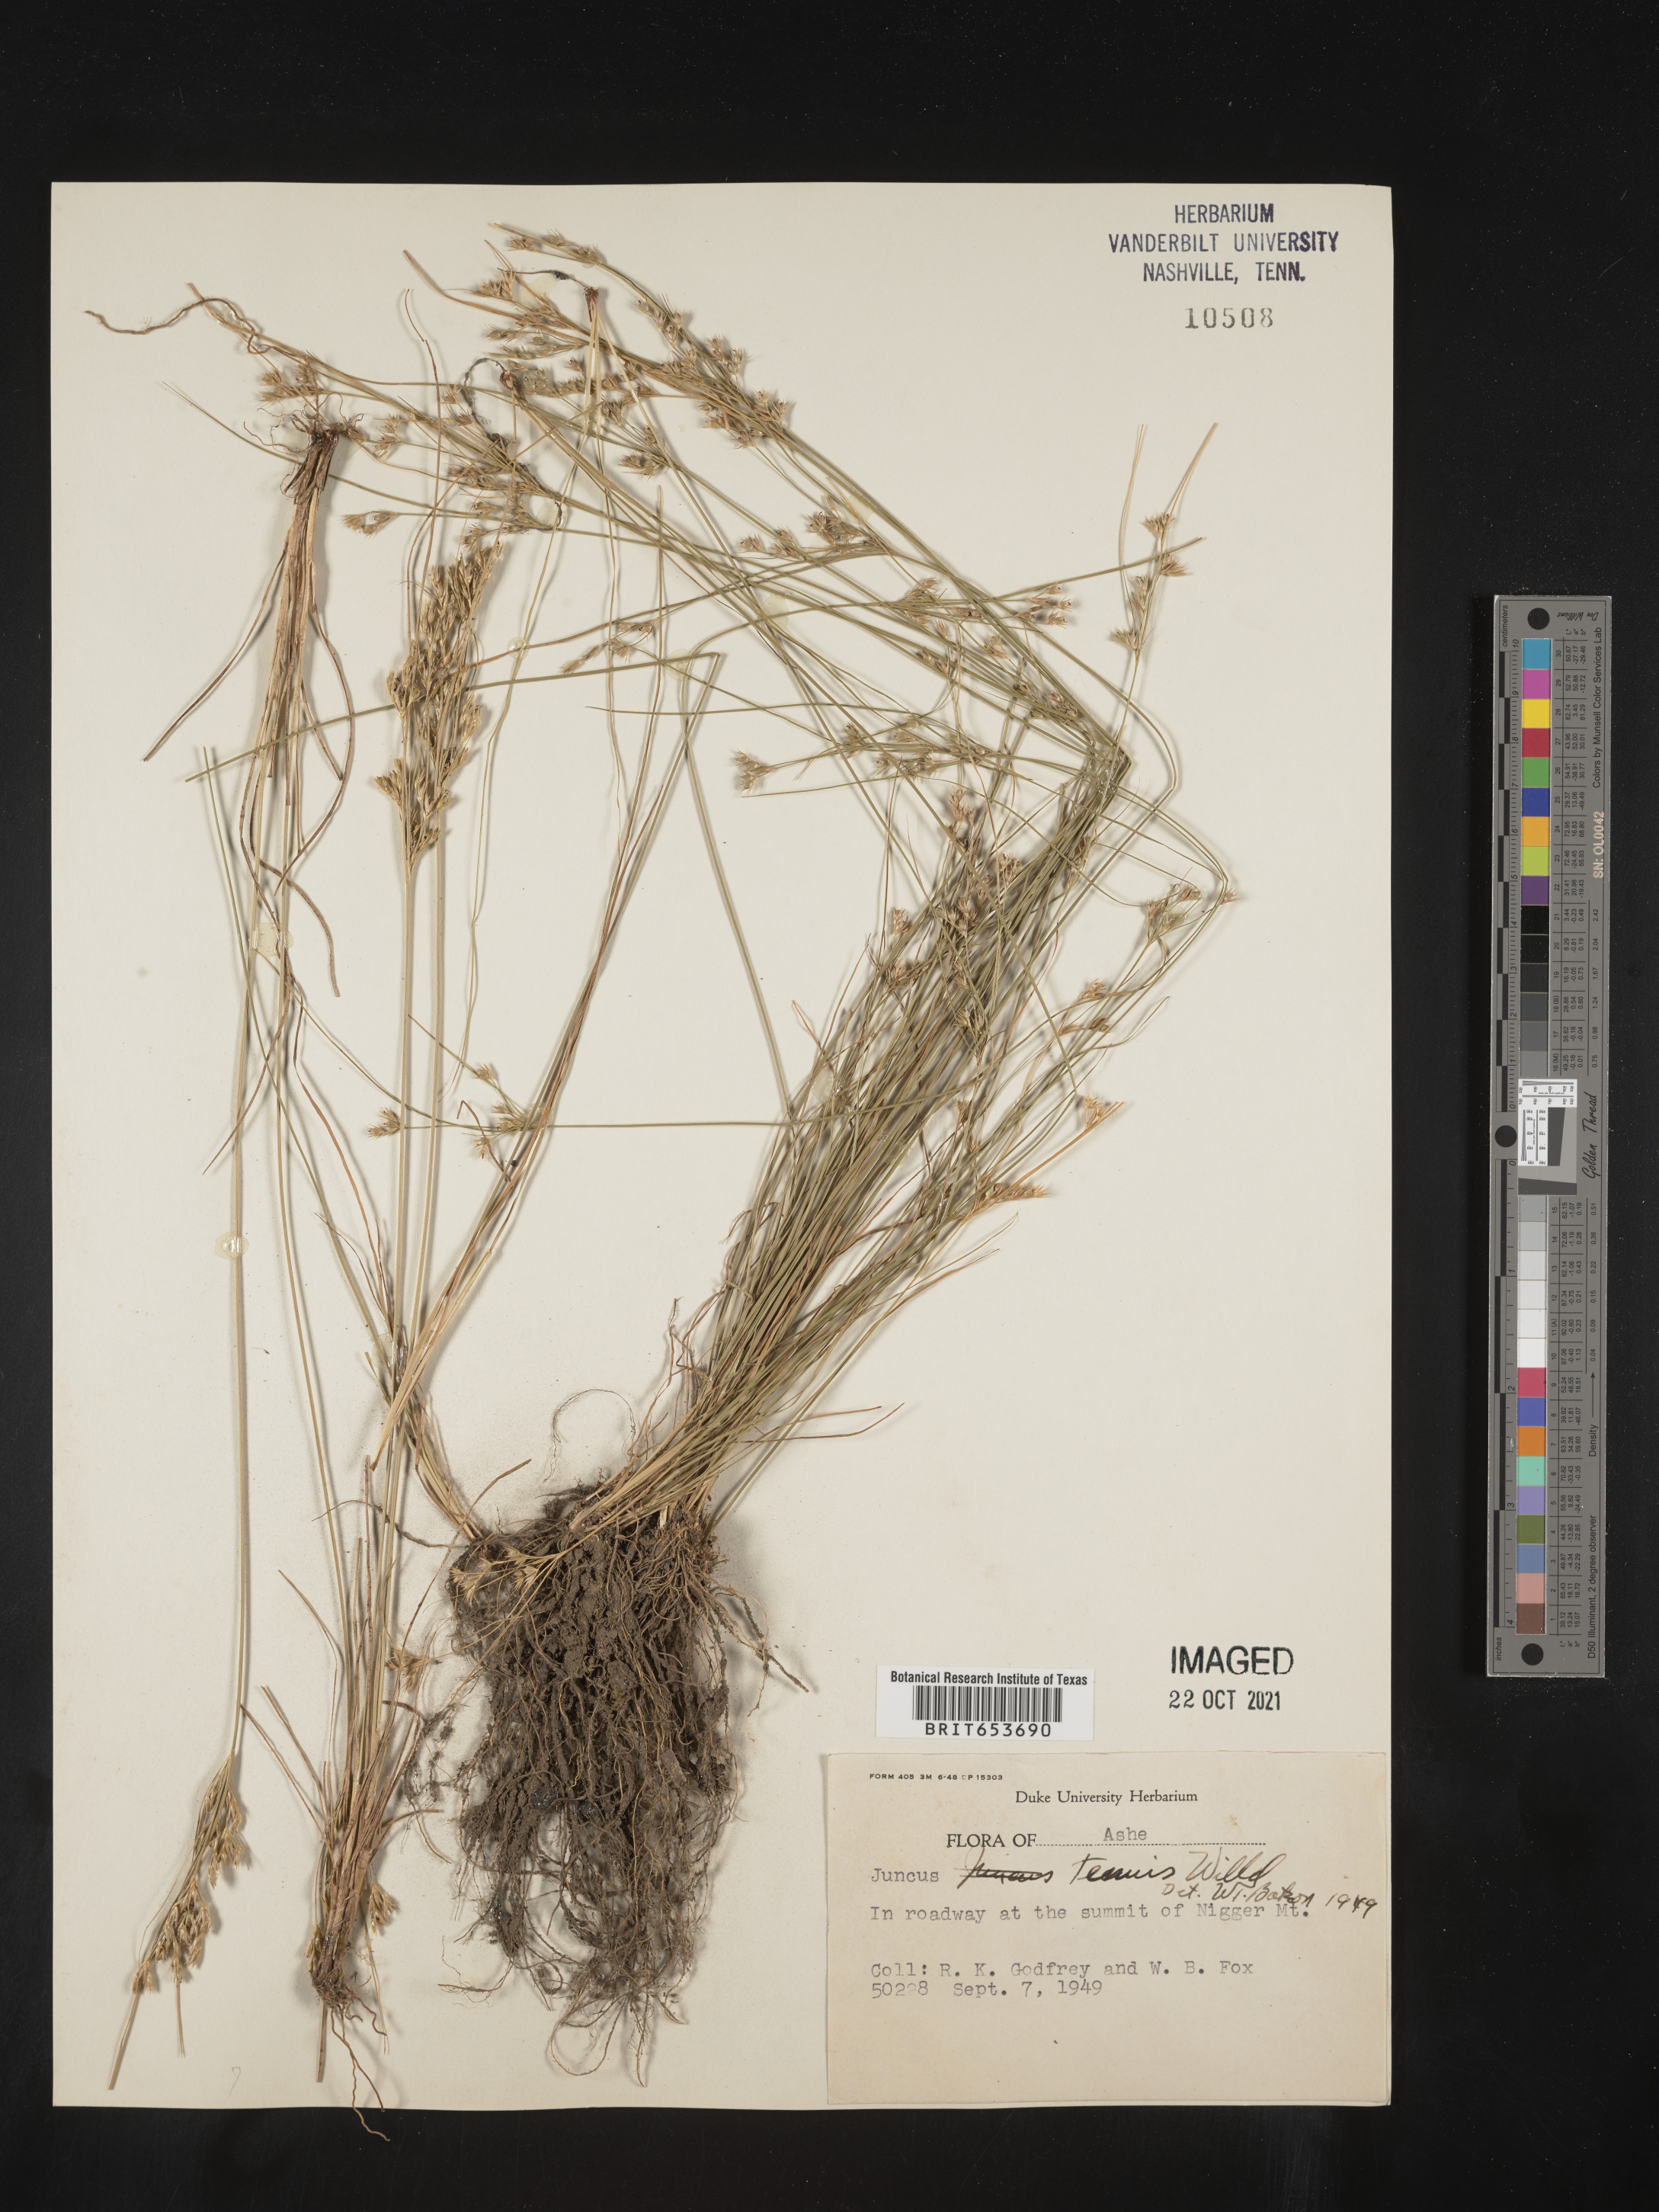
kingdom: Plantae
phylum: Tracheophyta
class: Liliopsida
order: Poales
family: Juncaceae
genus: Juncus
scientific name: Juncus tenuis
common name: Slender rush
